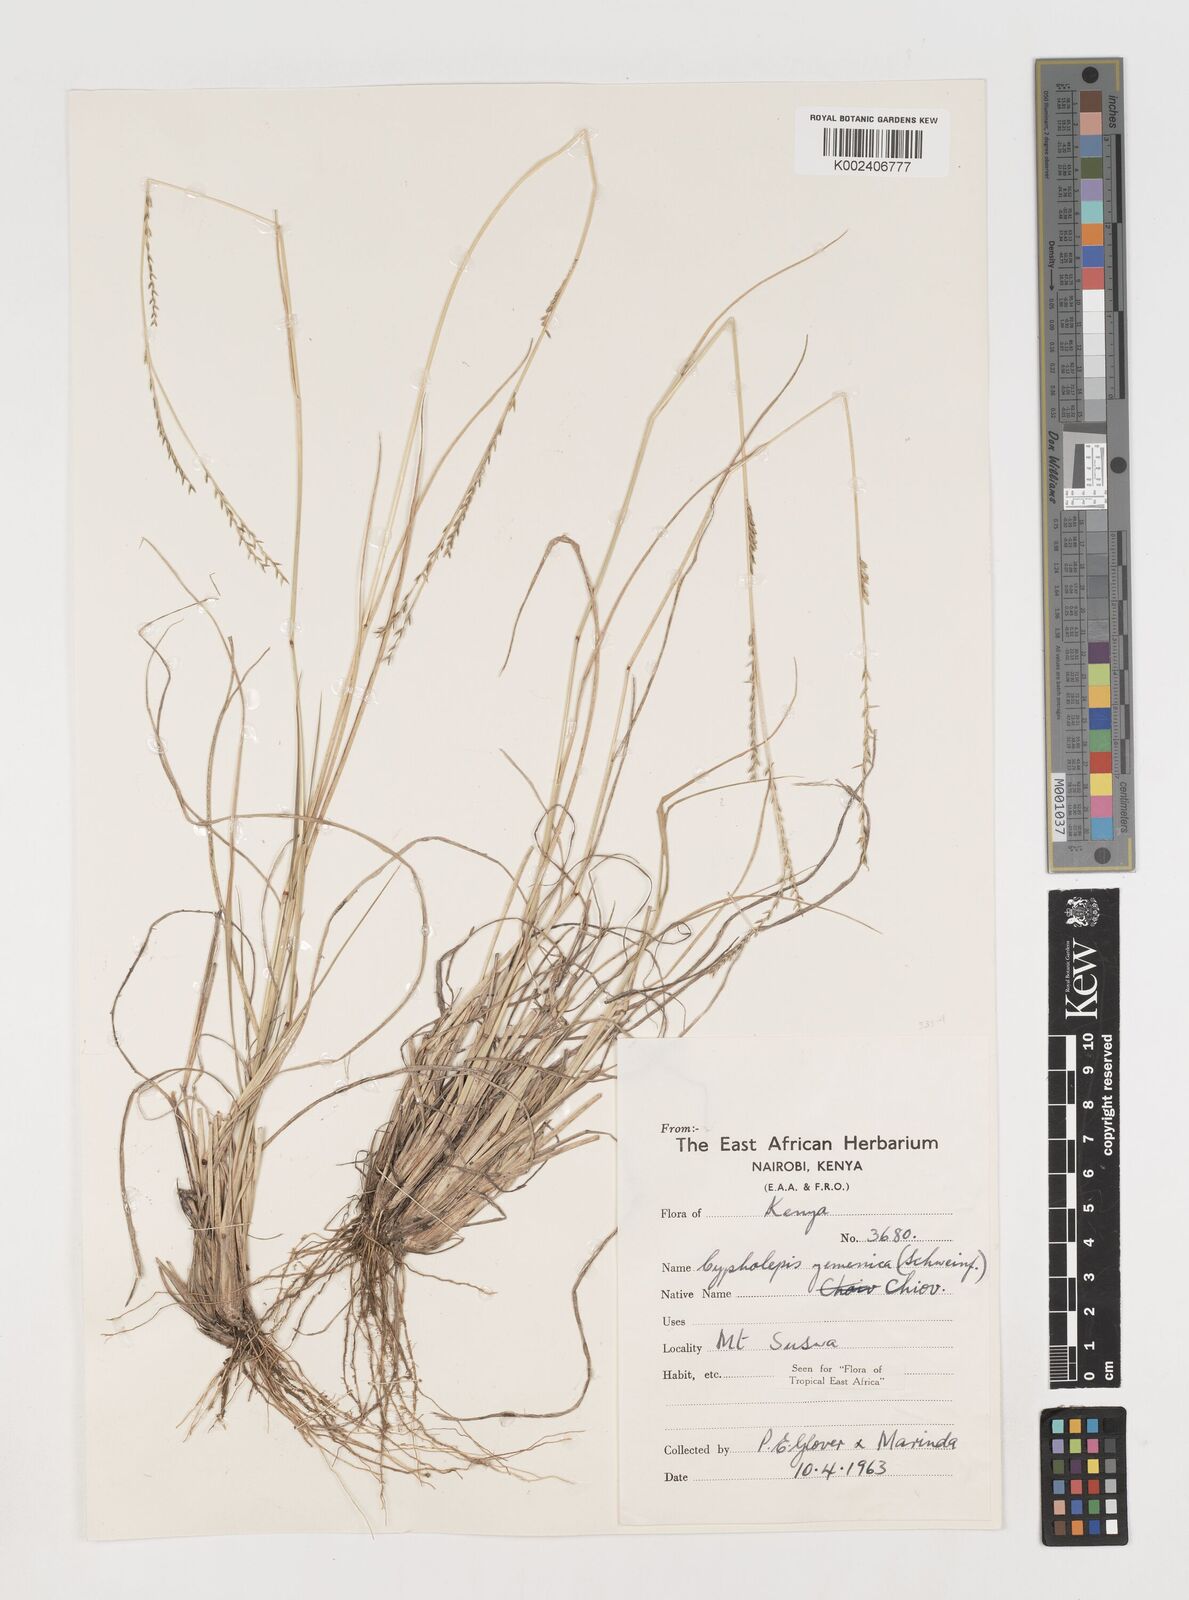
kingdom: Plantae
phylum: Tracheophyta
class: Liliopsida
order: Poales
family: Poaceae
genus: Disakisperma
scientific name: Disakisperma yemenicum
